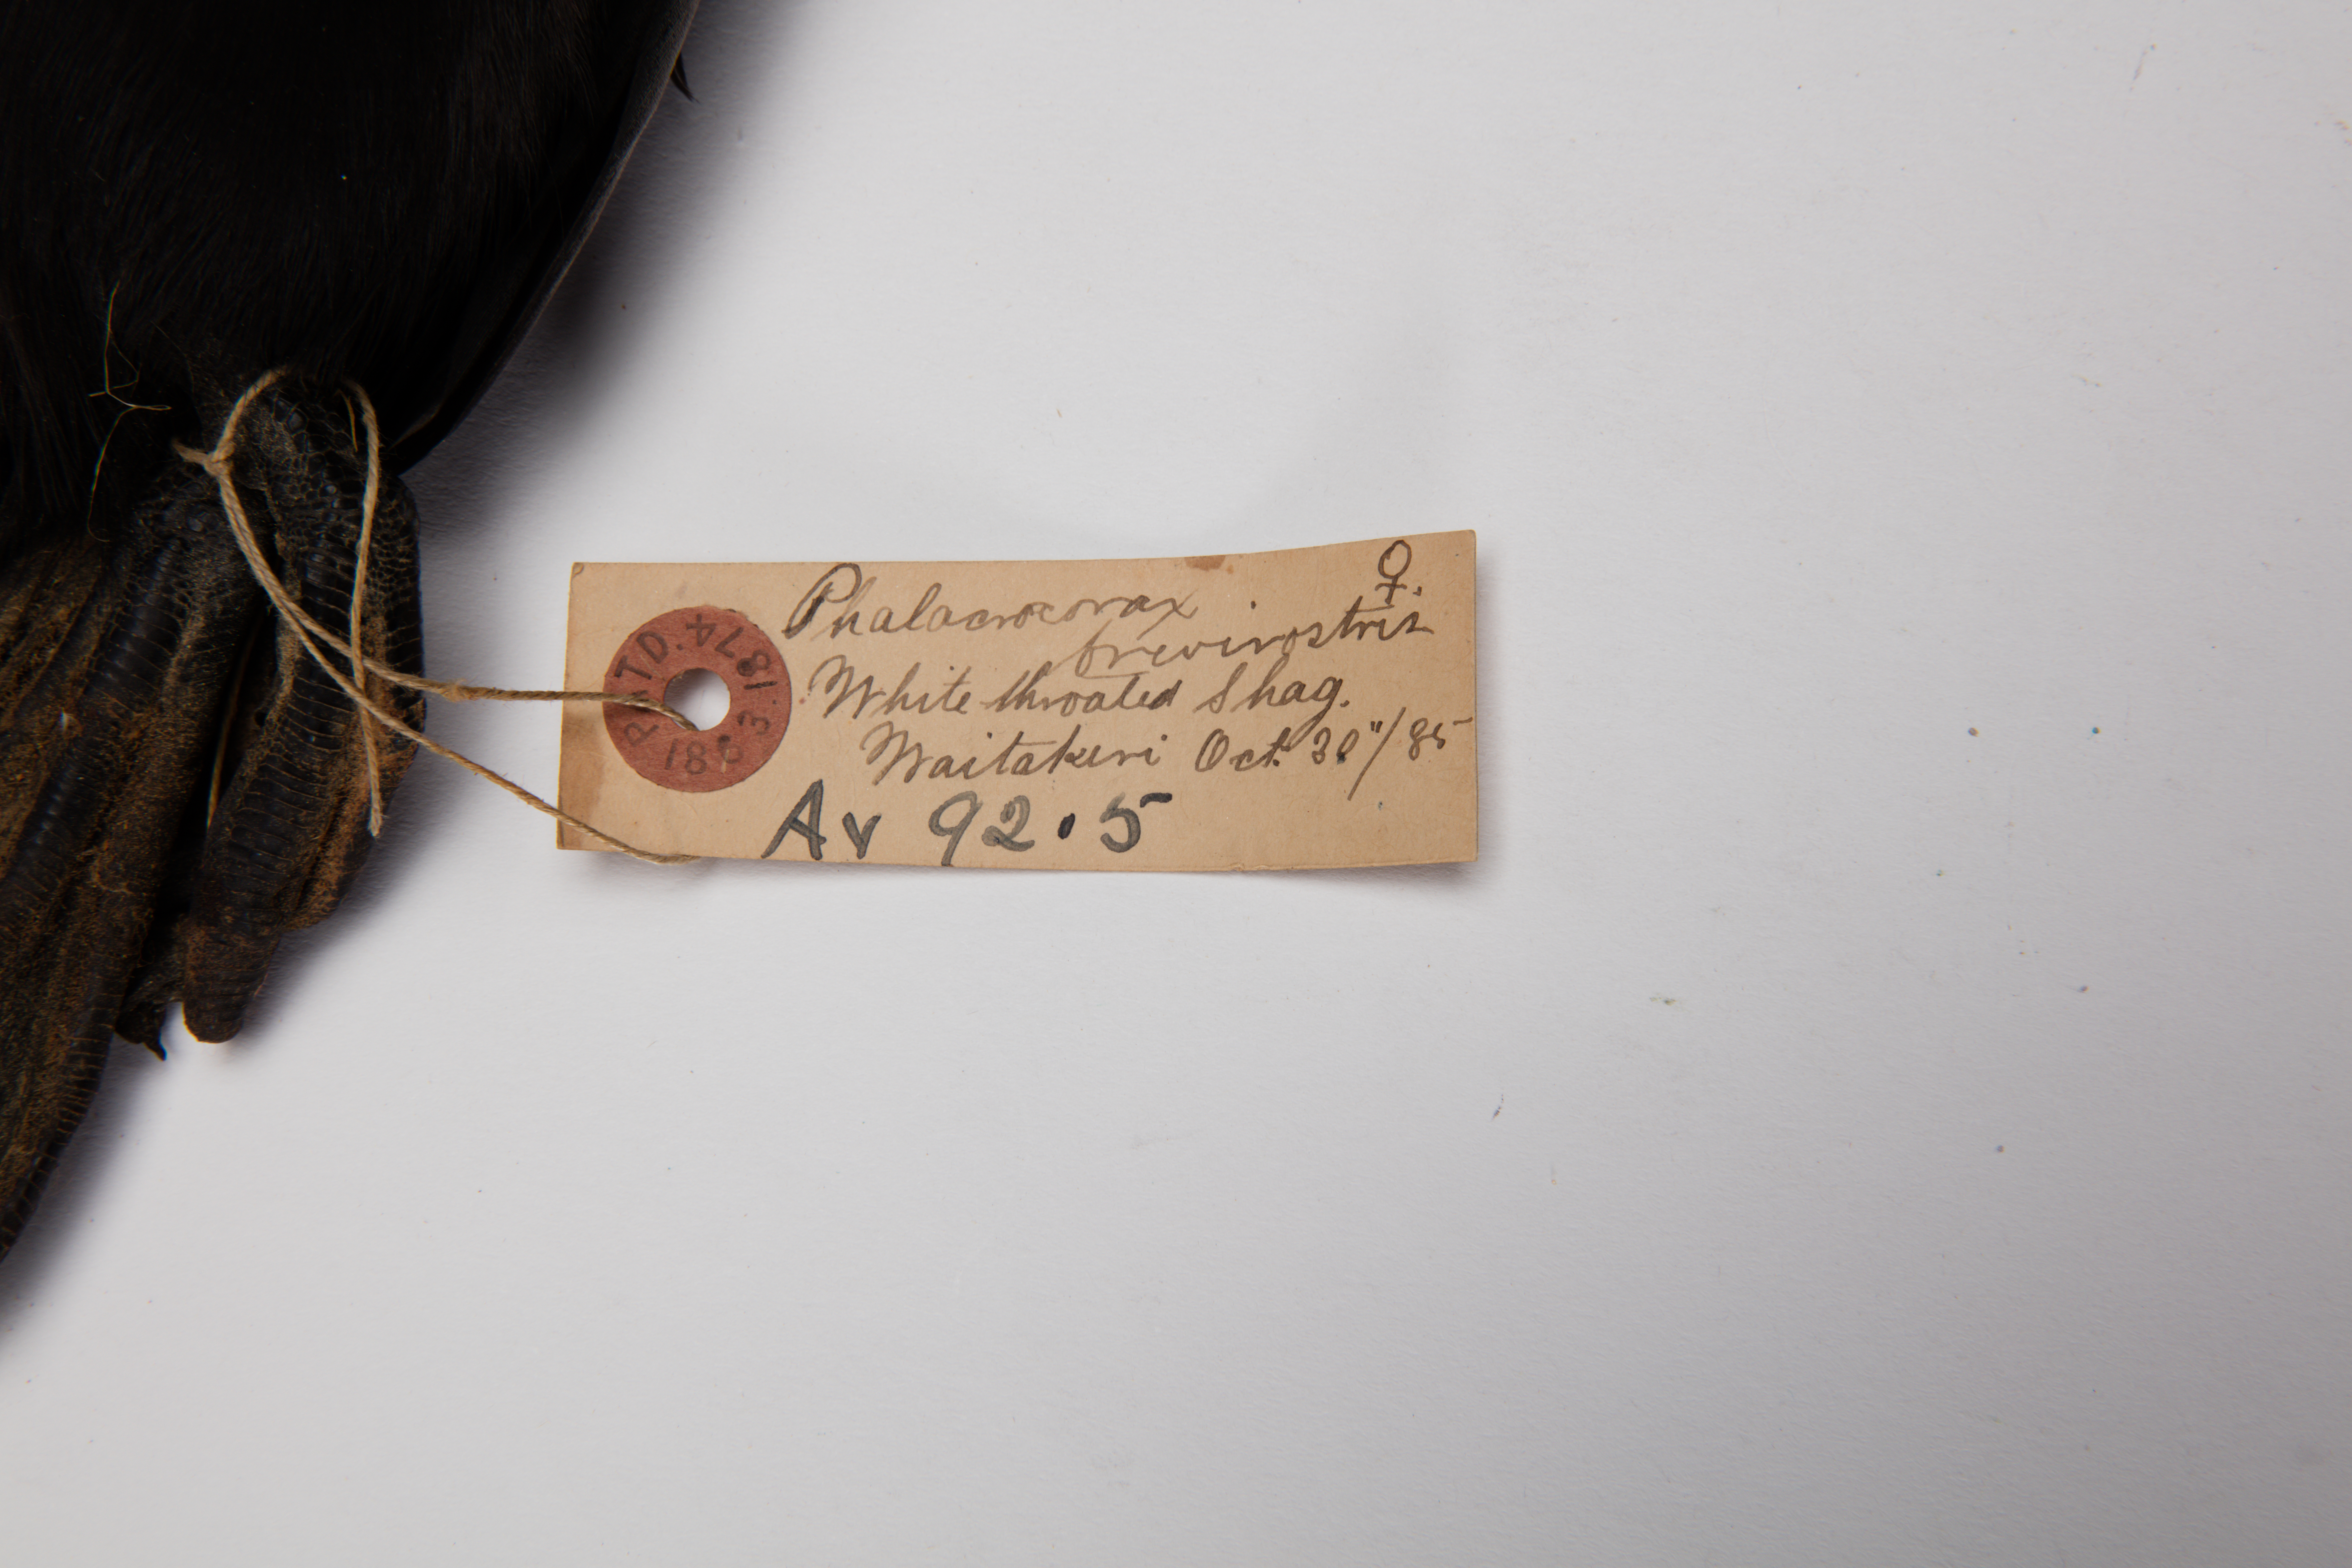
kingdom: Animalia
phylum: Chordata
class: Aves
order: Suliformes
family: Phalacrocoracidae
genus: Microcarbo
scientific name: Microcarbo melanoleucos
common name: Little pied cormorant
